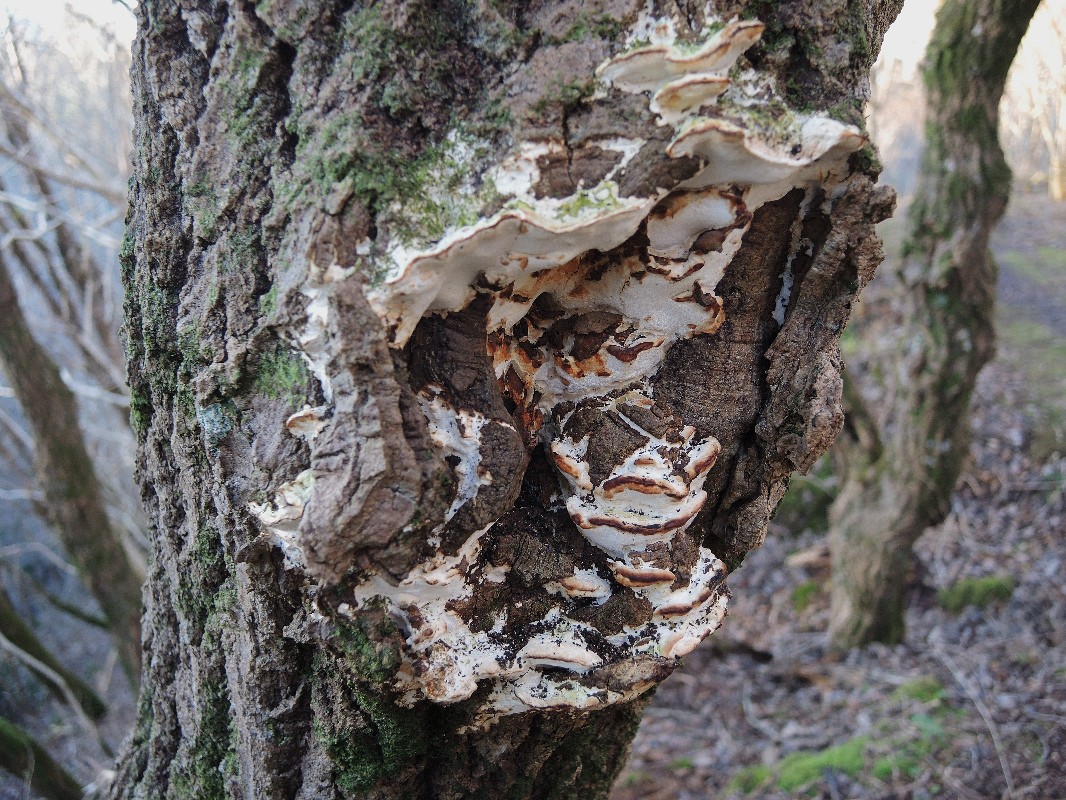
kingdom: Fungi
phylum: Basidiomycota
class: Agaricomycetes
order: Hymenochaetales
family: Oxyporaceae
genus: Oxyporus
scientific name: Oxyporus populinus
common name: sammenvokset trylleporesvamp
